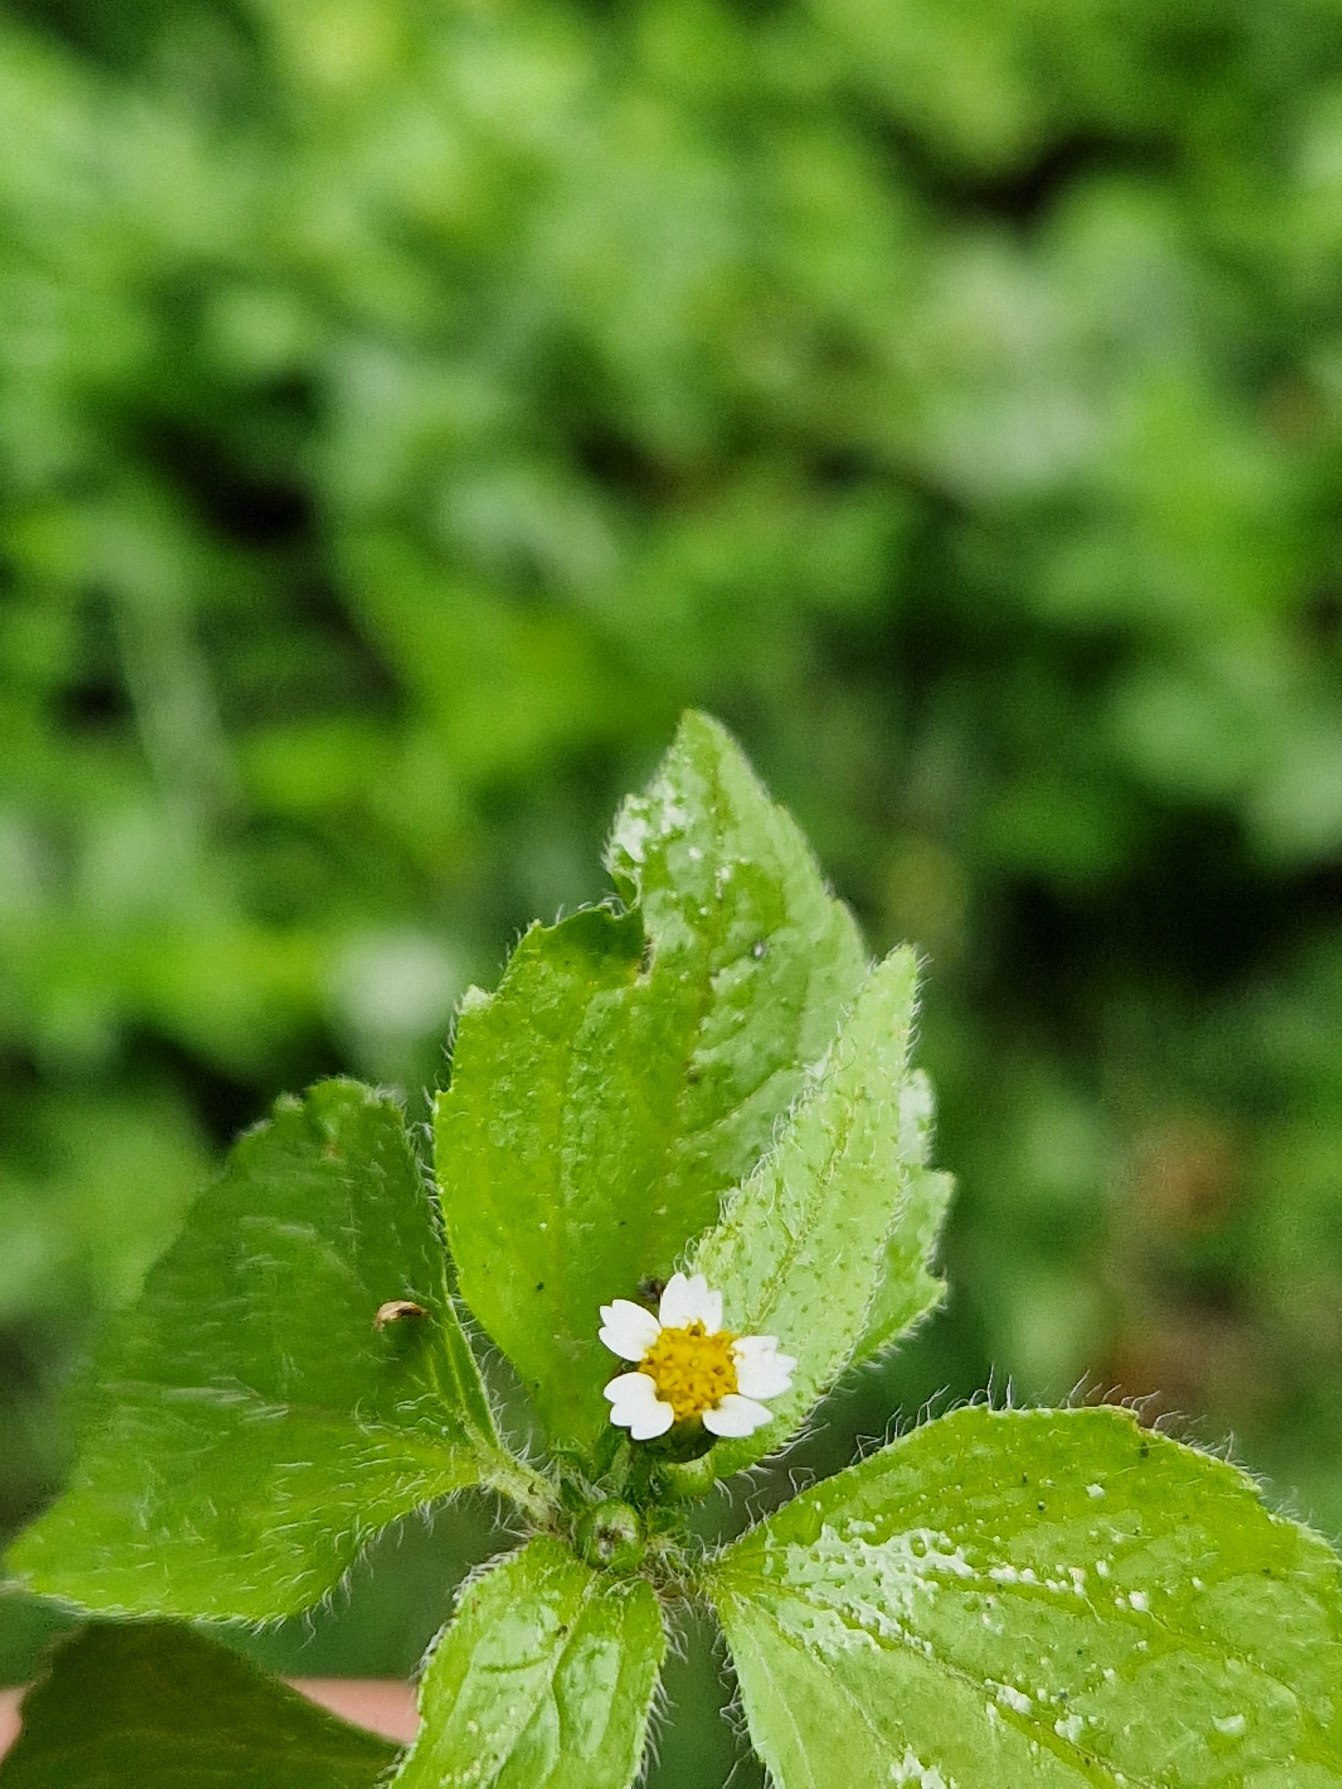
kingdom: Plantae
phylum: Tracheophyta
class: Magnoliopsida
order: Asterales
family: Asteraceae
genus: Galinsoga
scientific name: Galinsoga quadriradiata
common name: Kirtel-kortstråle
